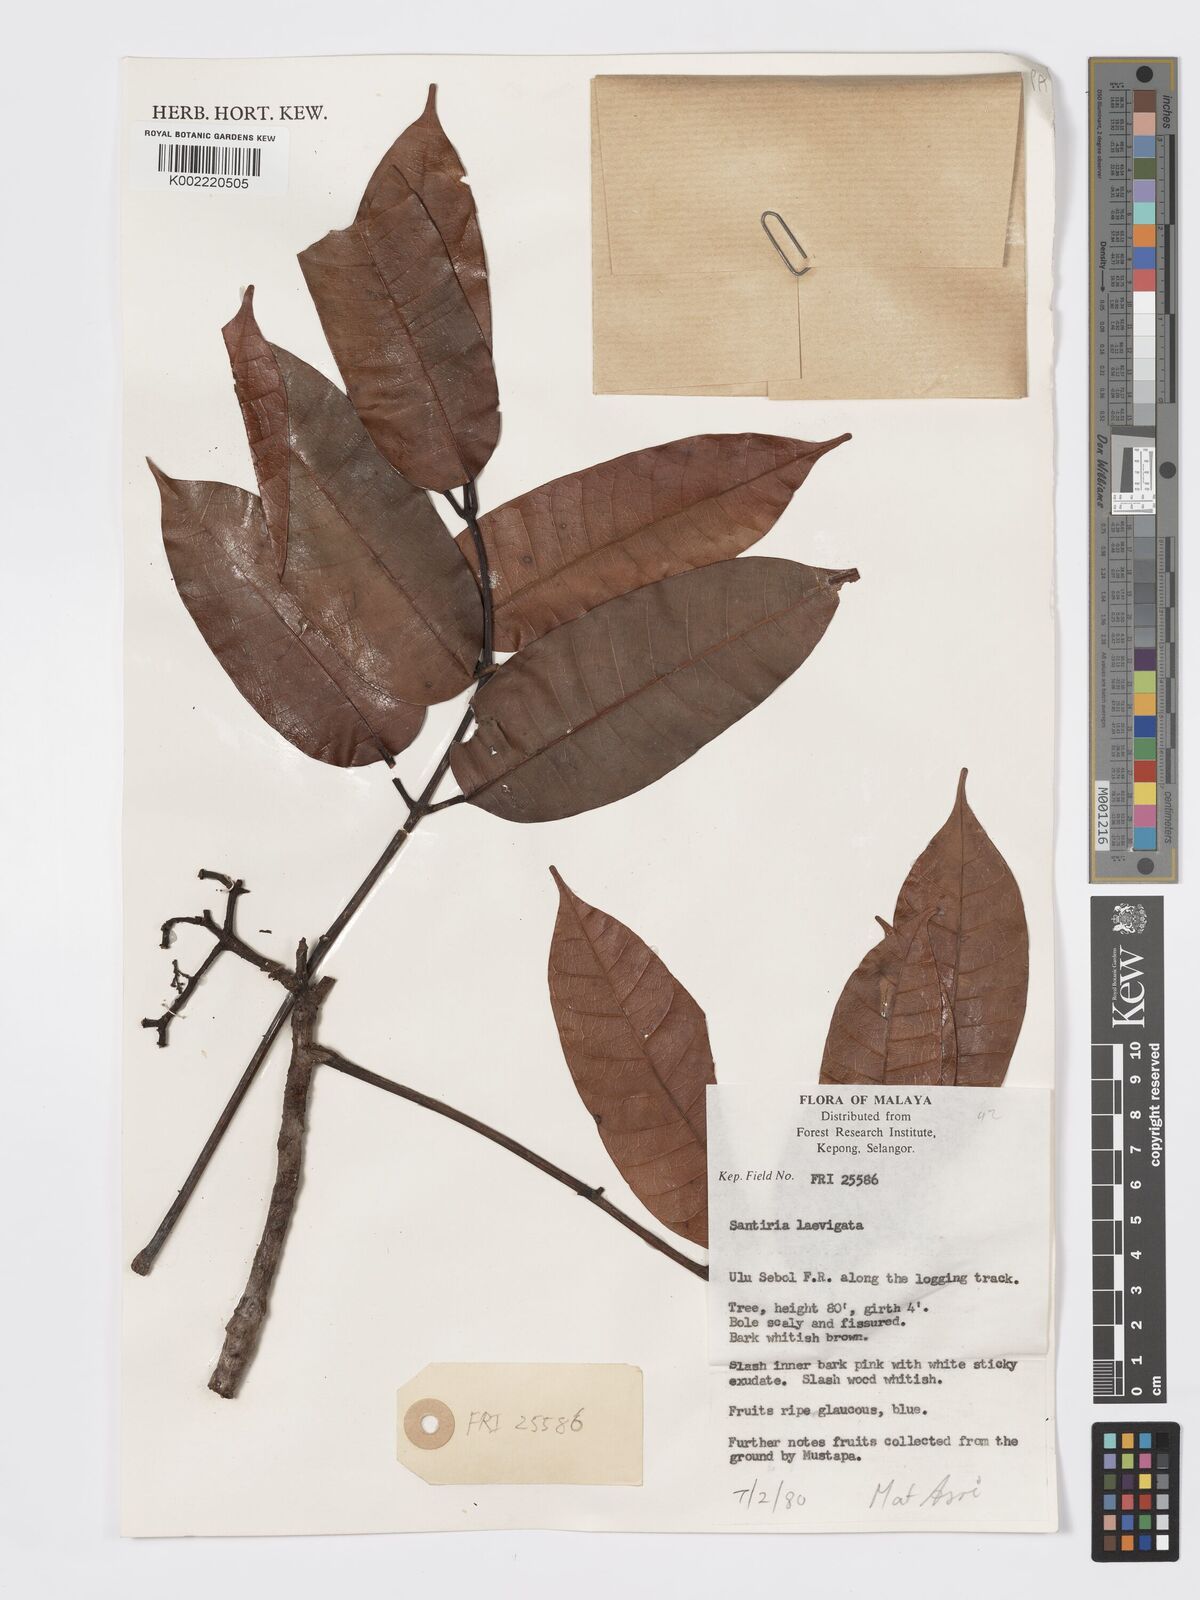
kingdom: Plantae
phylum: Tracheophyta
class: Magnoliopsida
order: Sapindales
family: Burseraceae
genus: Santiria
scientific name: Santiria laevigata
